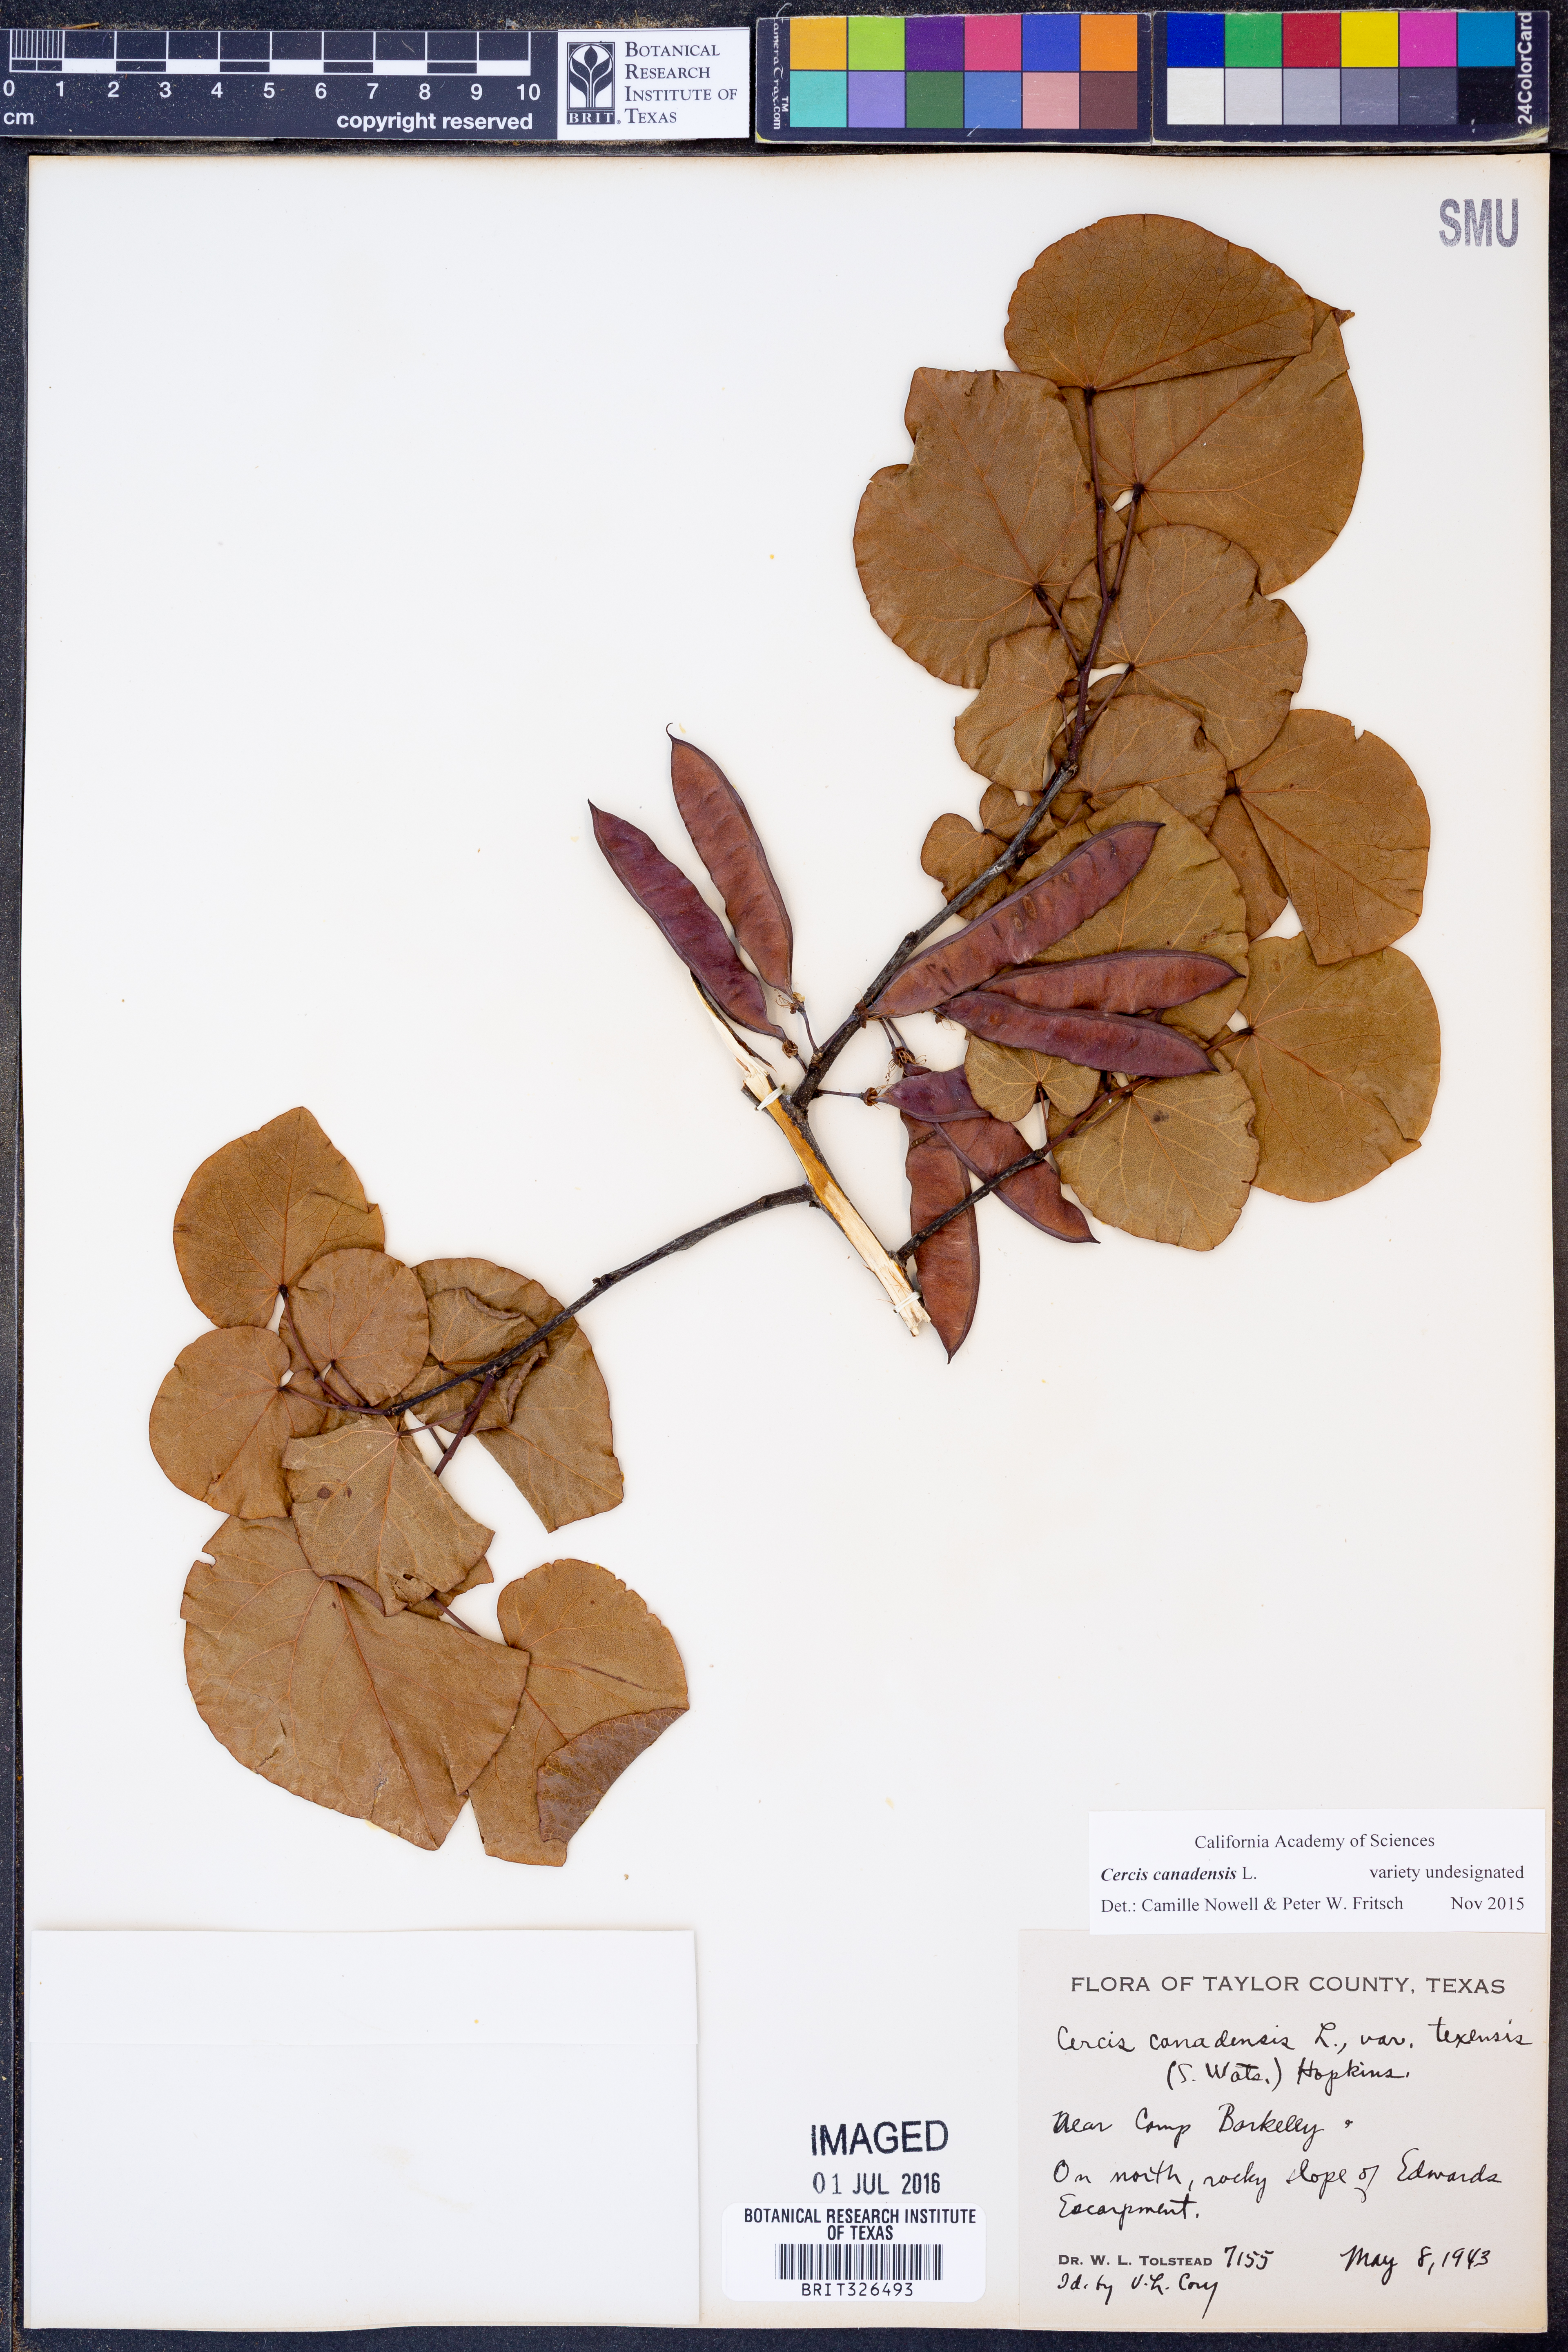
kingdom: Plantae
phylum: Tracheophyta
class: Magnoliopsida
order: Fabales
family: Fabaceae
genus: Cercis
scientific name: Cercis canadensis
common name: Eastern redbud
